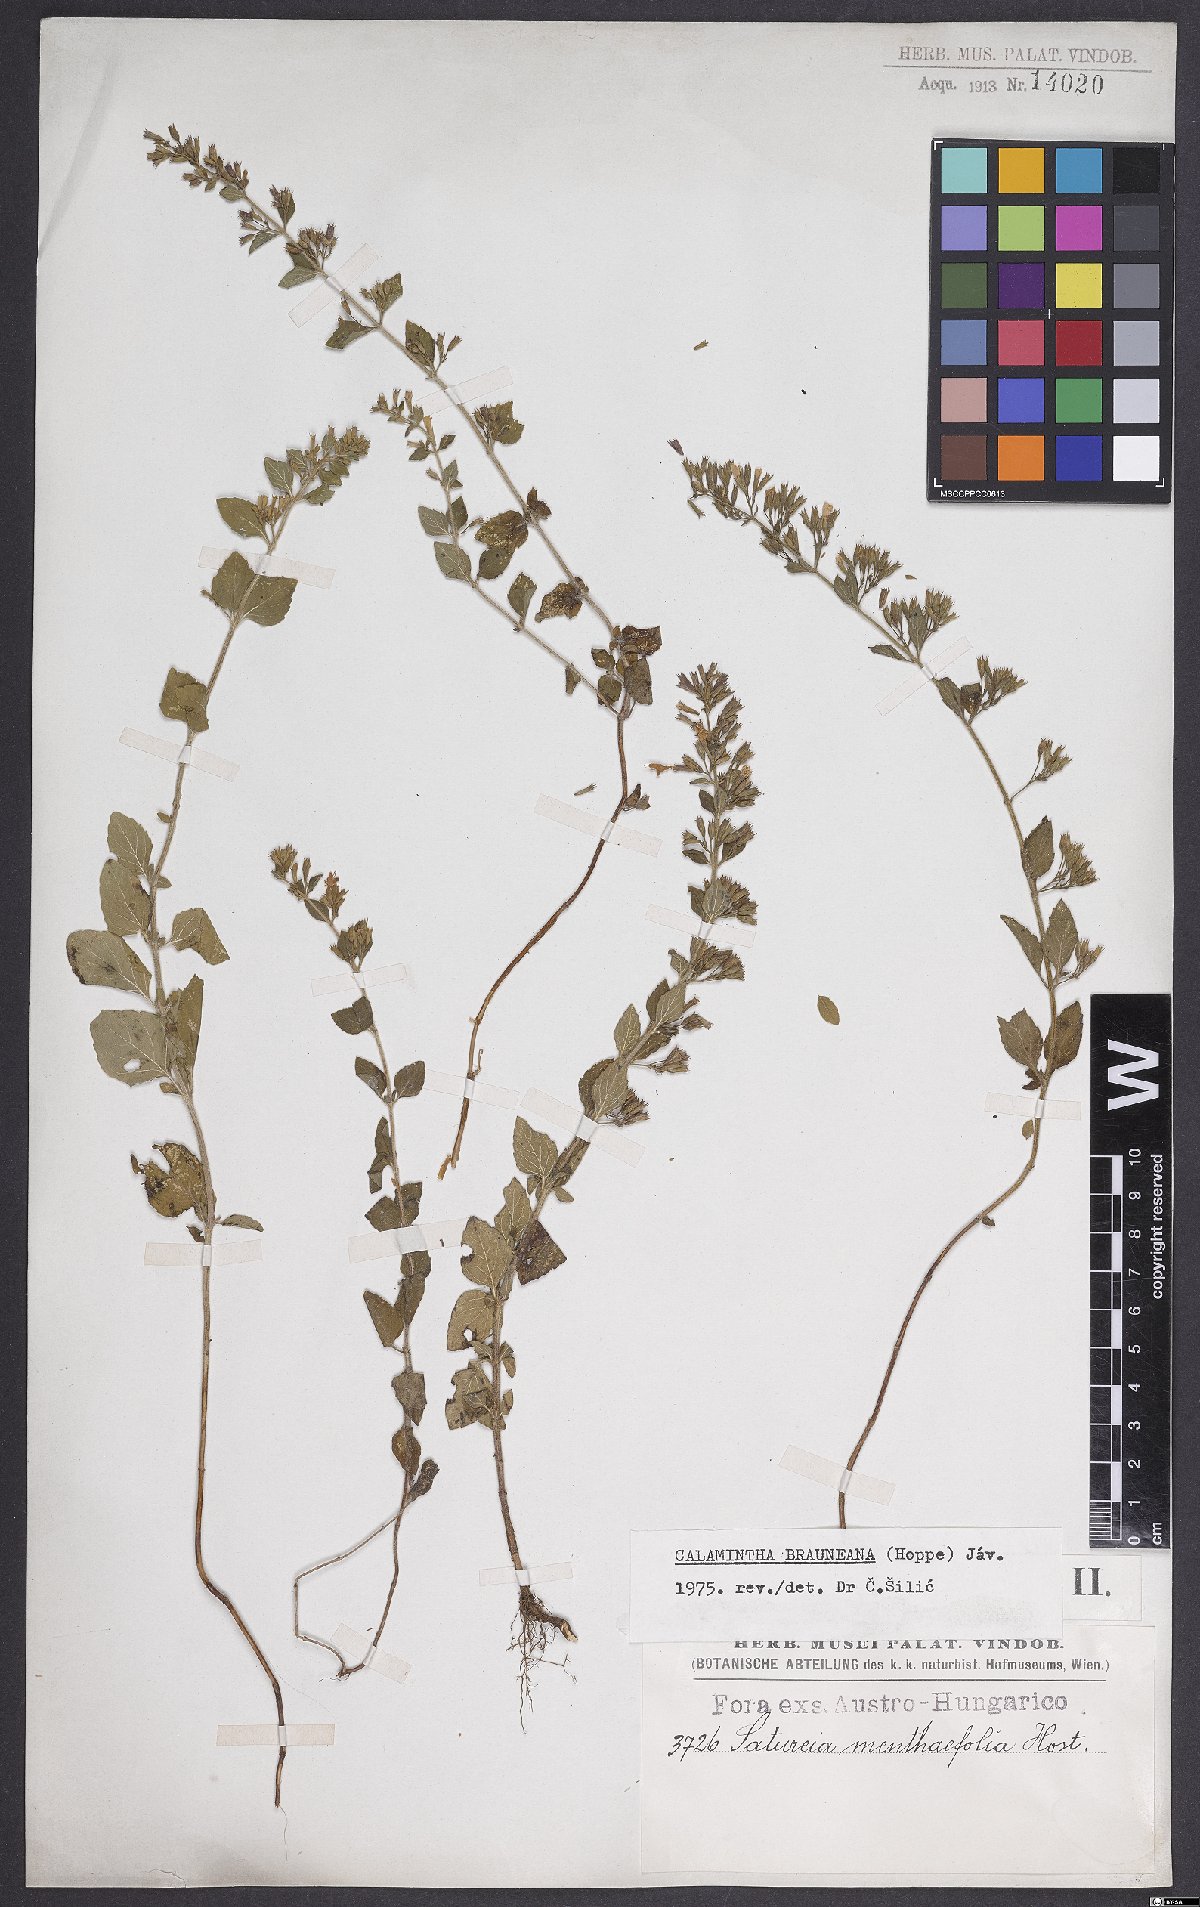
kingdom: Plantae
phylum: Tracheophyta
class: Magnoliopsida
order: Lamiales
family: Lamiaceae
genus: Clinopodium
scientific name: Clinopodium nepeta
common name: Lesser calamint
